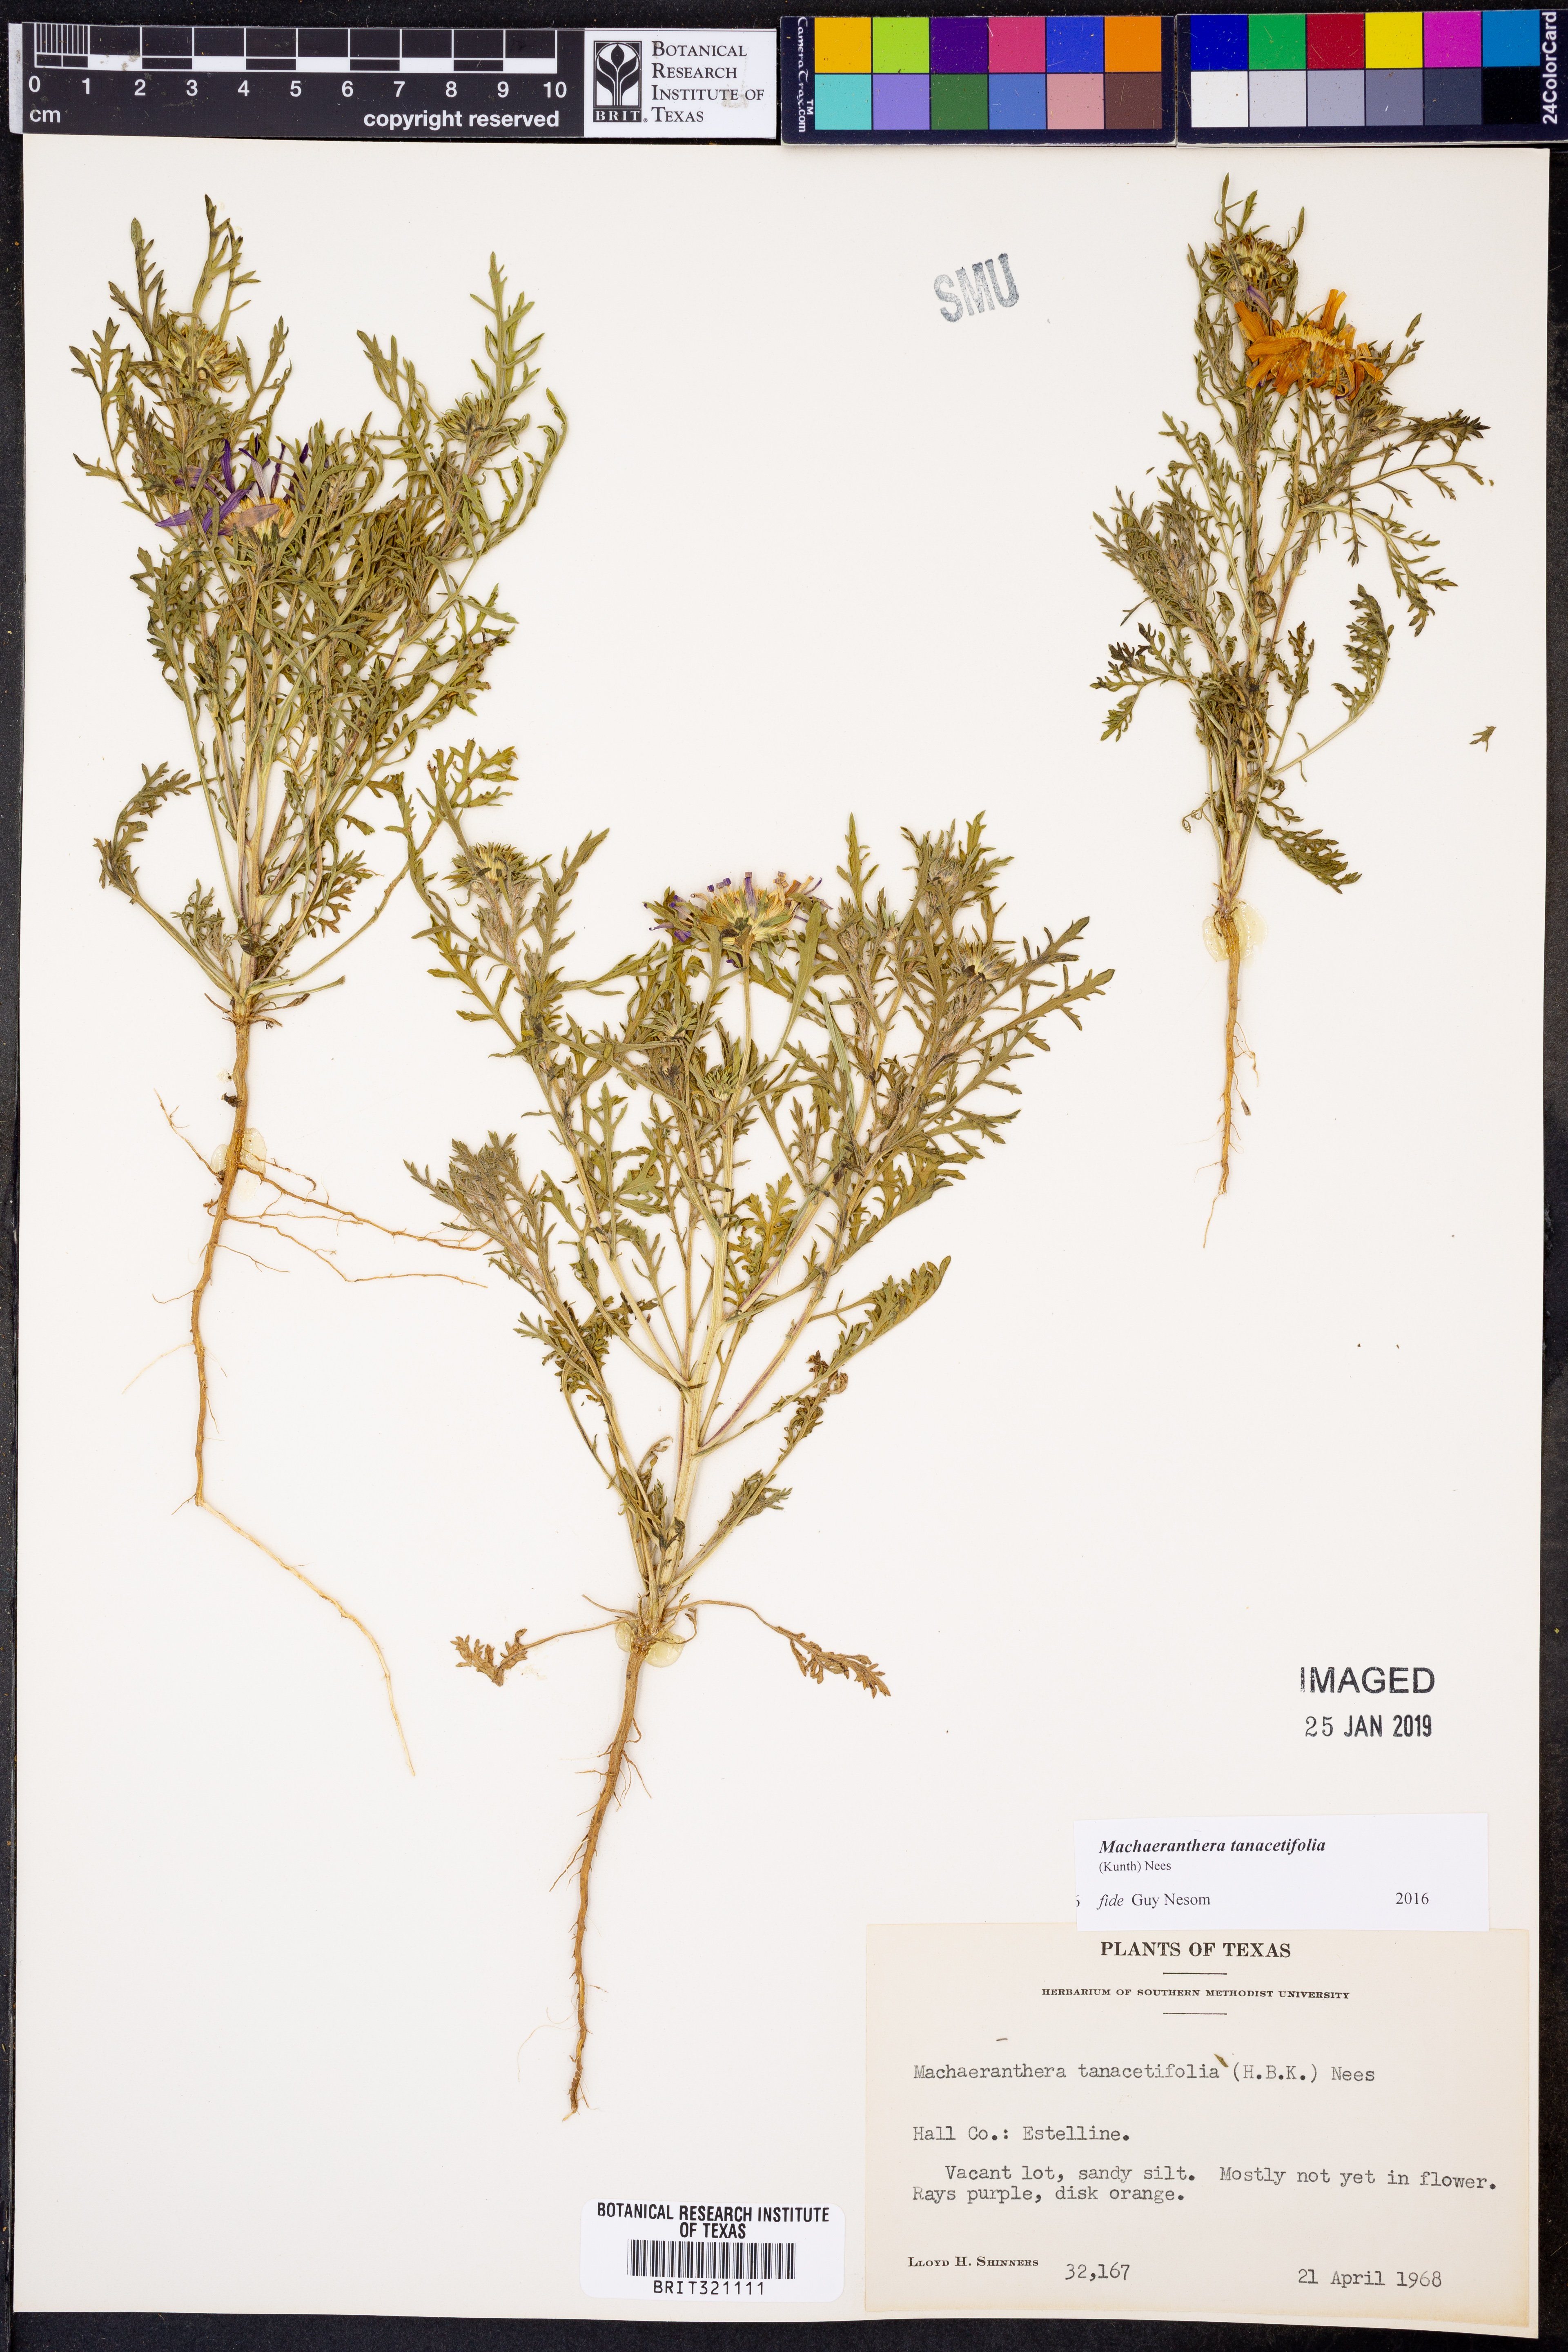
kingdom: Plantae
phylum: Tracheophyta
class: Magnoliopsida
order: Asterales
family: Asteraceae
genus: Machaeranthera
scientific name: Machaeranthera tanacetifolia
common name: Tansy-aster
